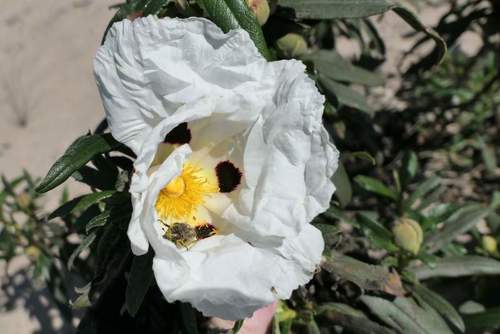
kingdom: Plantae
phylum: Tracheophyta
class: Magnoliopsida
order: Malvales
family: Cistaceae
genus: Cistus
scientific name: Cistus ladanifer
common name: Common gum cistus
